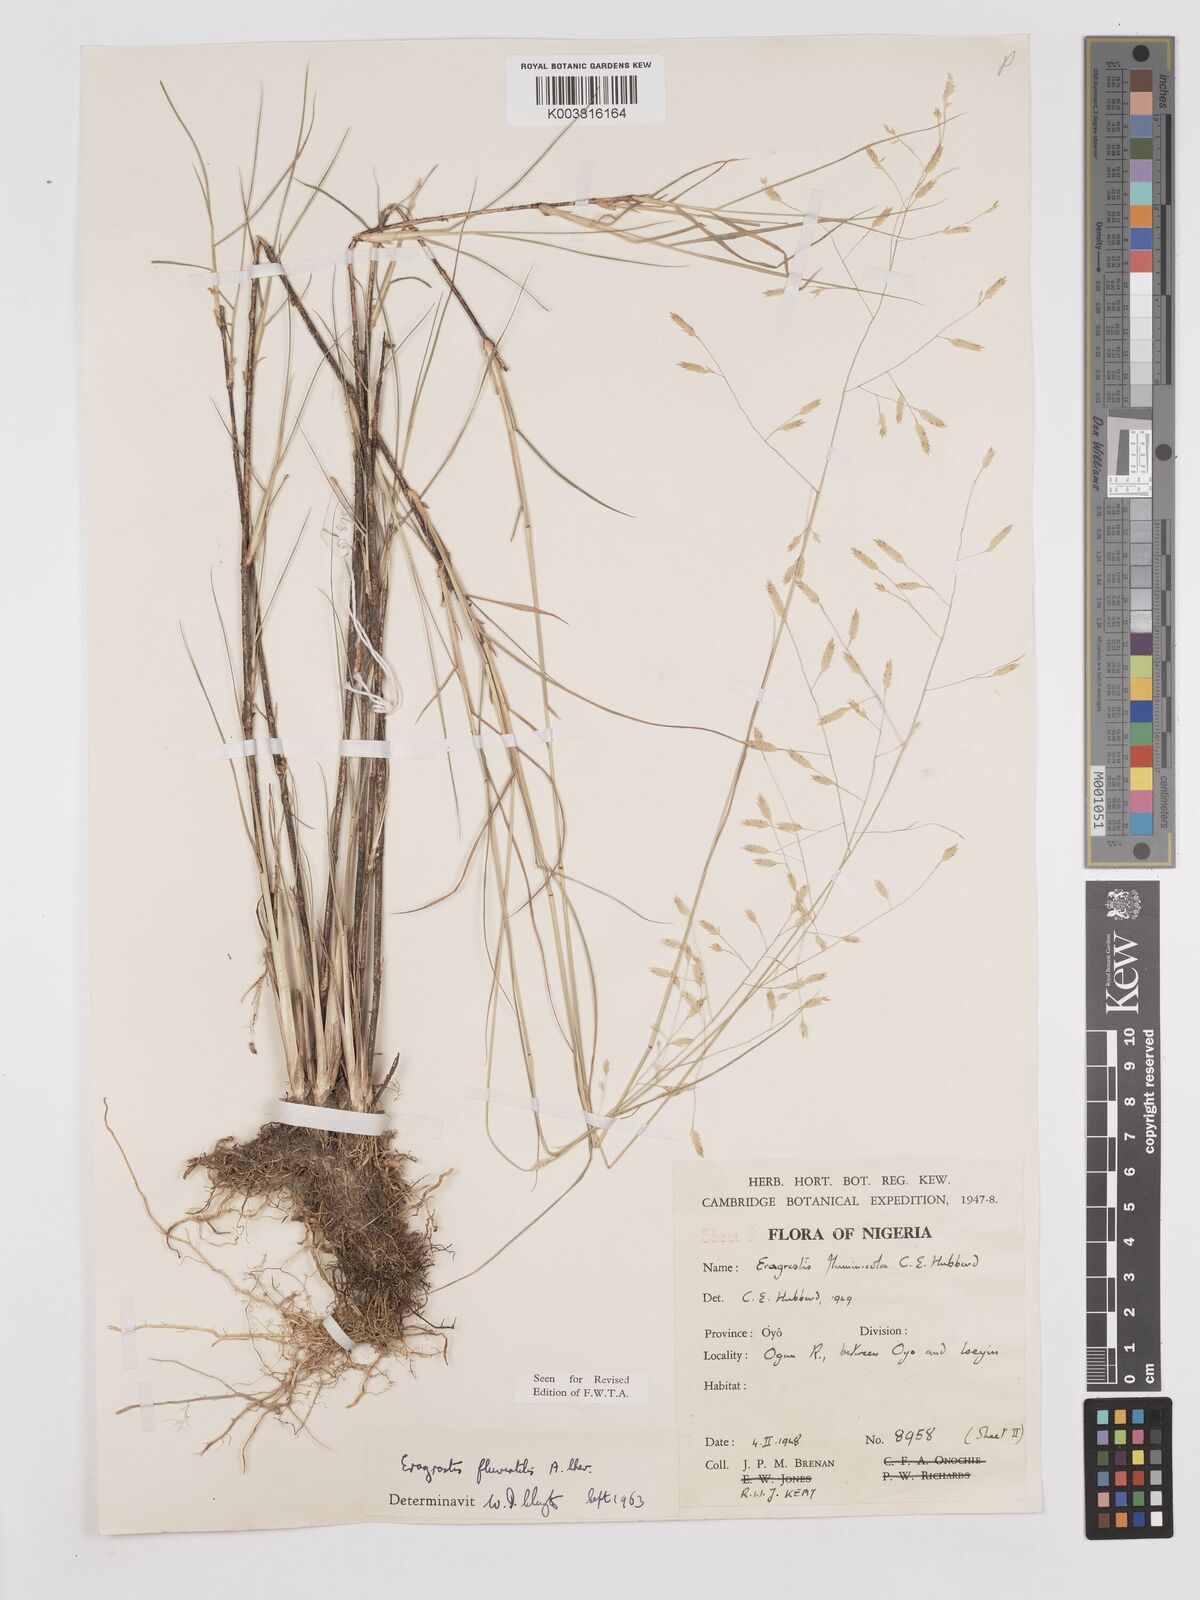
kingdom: Plantae
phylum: Tracheophyta
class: Liliopsida
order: Poales
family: Poaceae
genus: Eragrostis
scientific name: Eragrostis barteri
